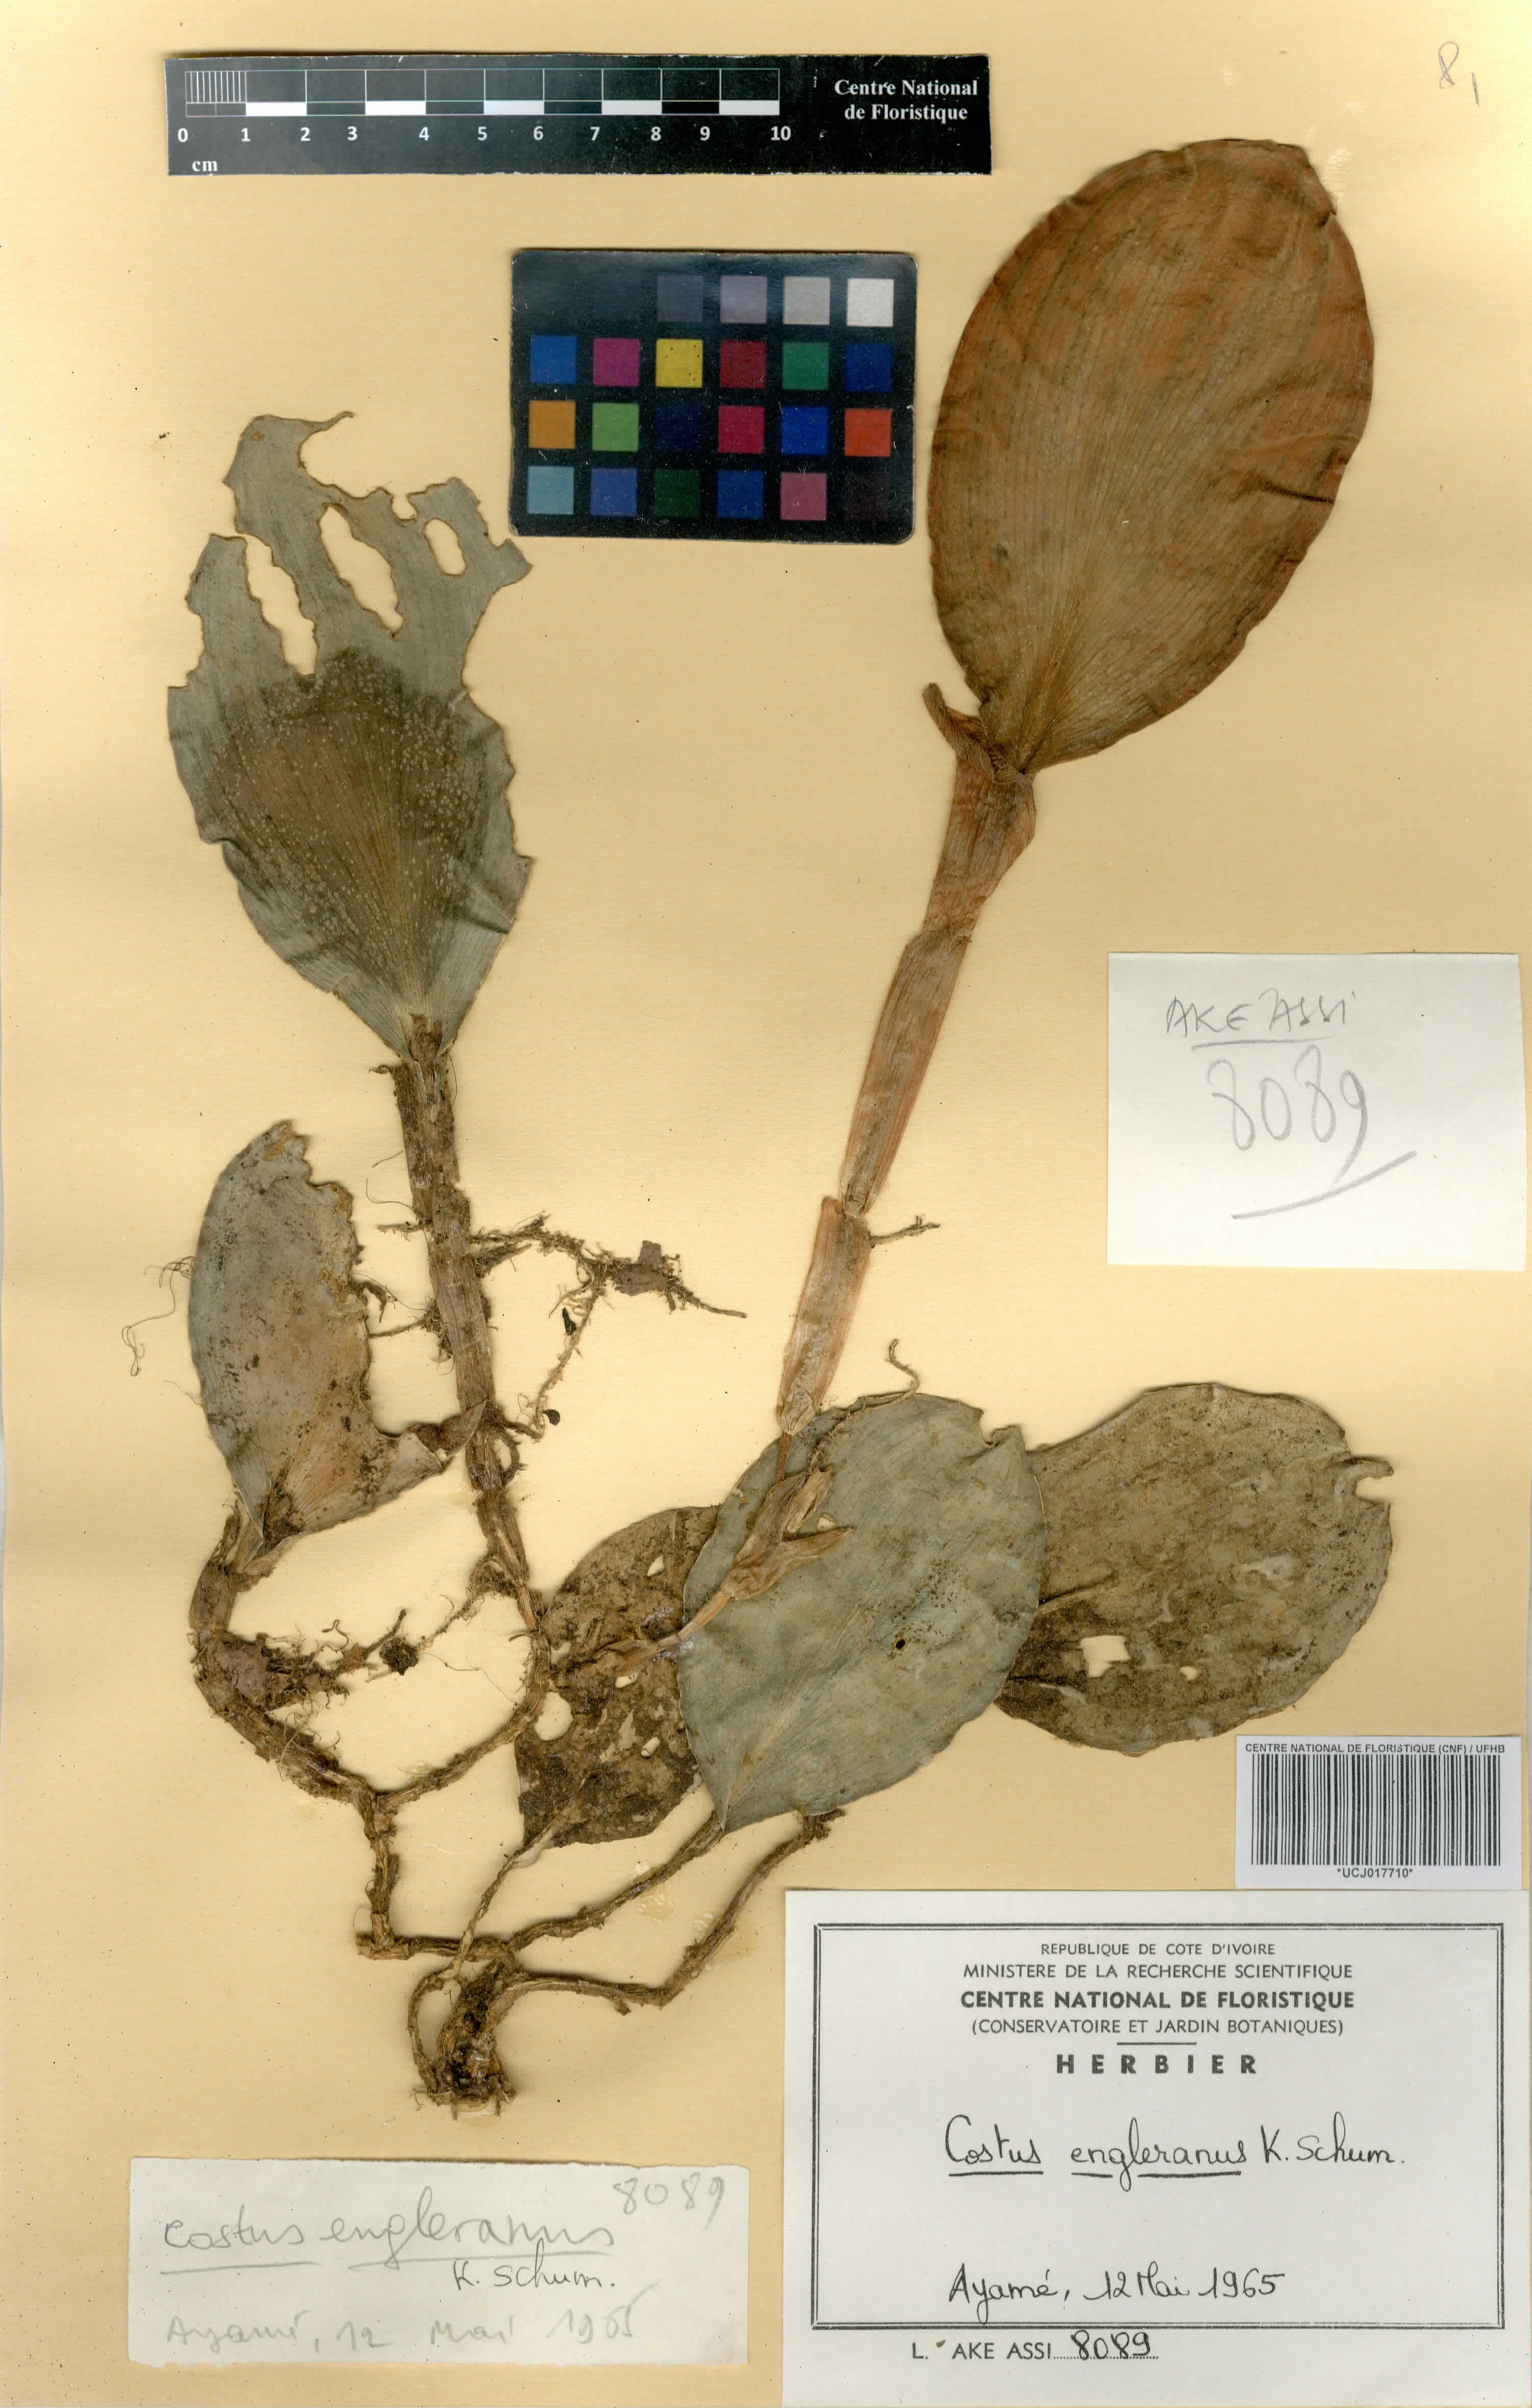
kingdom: Plantae
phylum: Tracheophyta
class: Liliopsida
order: Zingiberales
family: Costaceae
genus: Paracostus
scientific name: Paracostus englerianus
